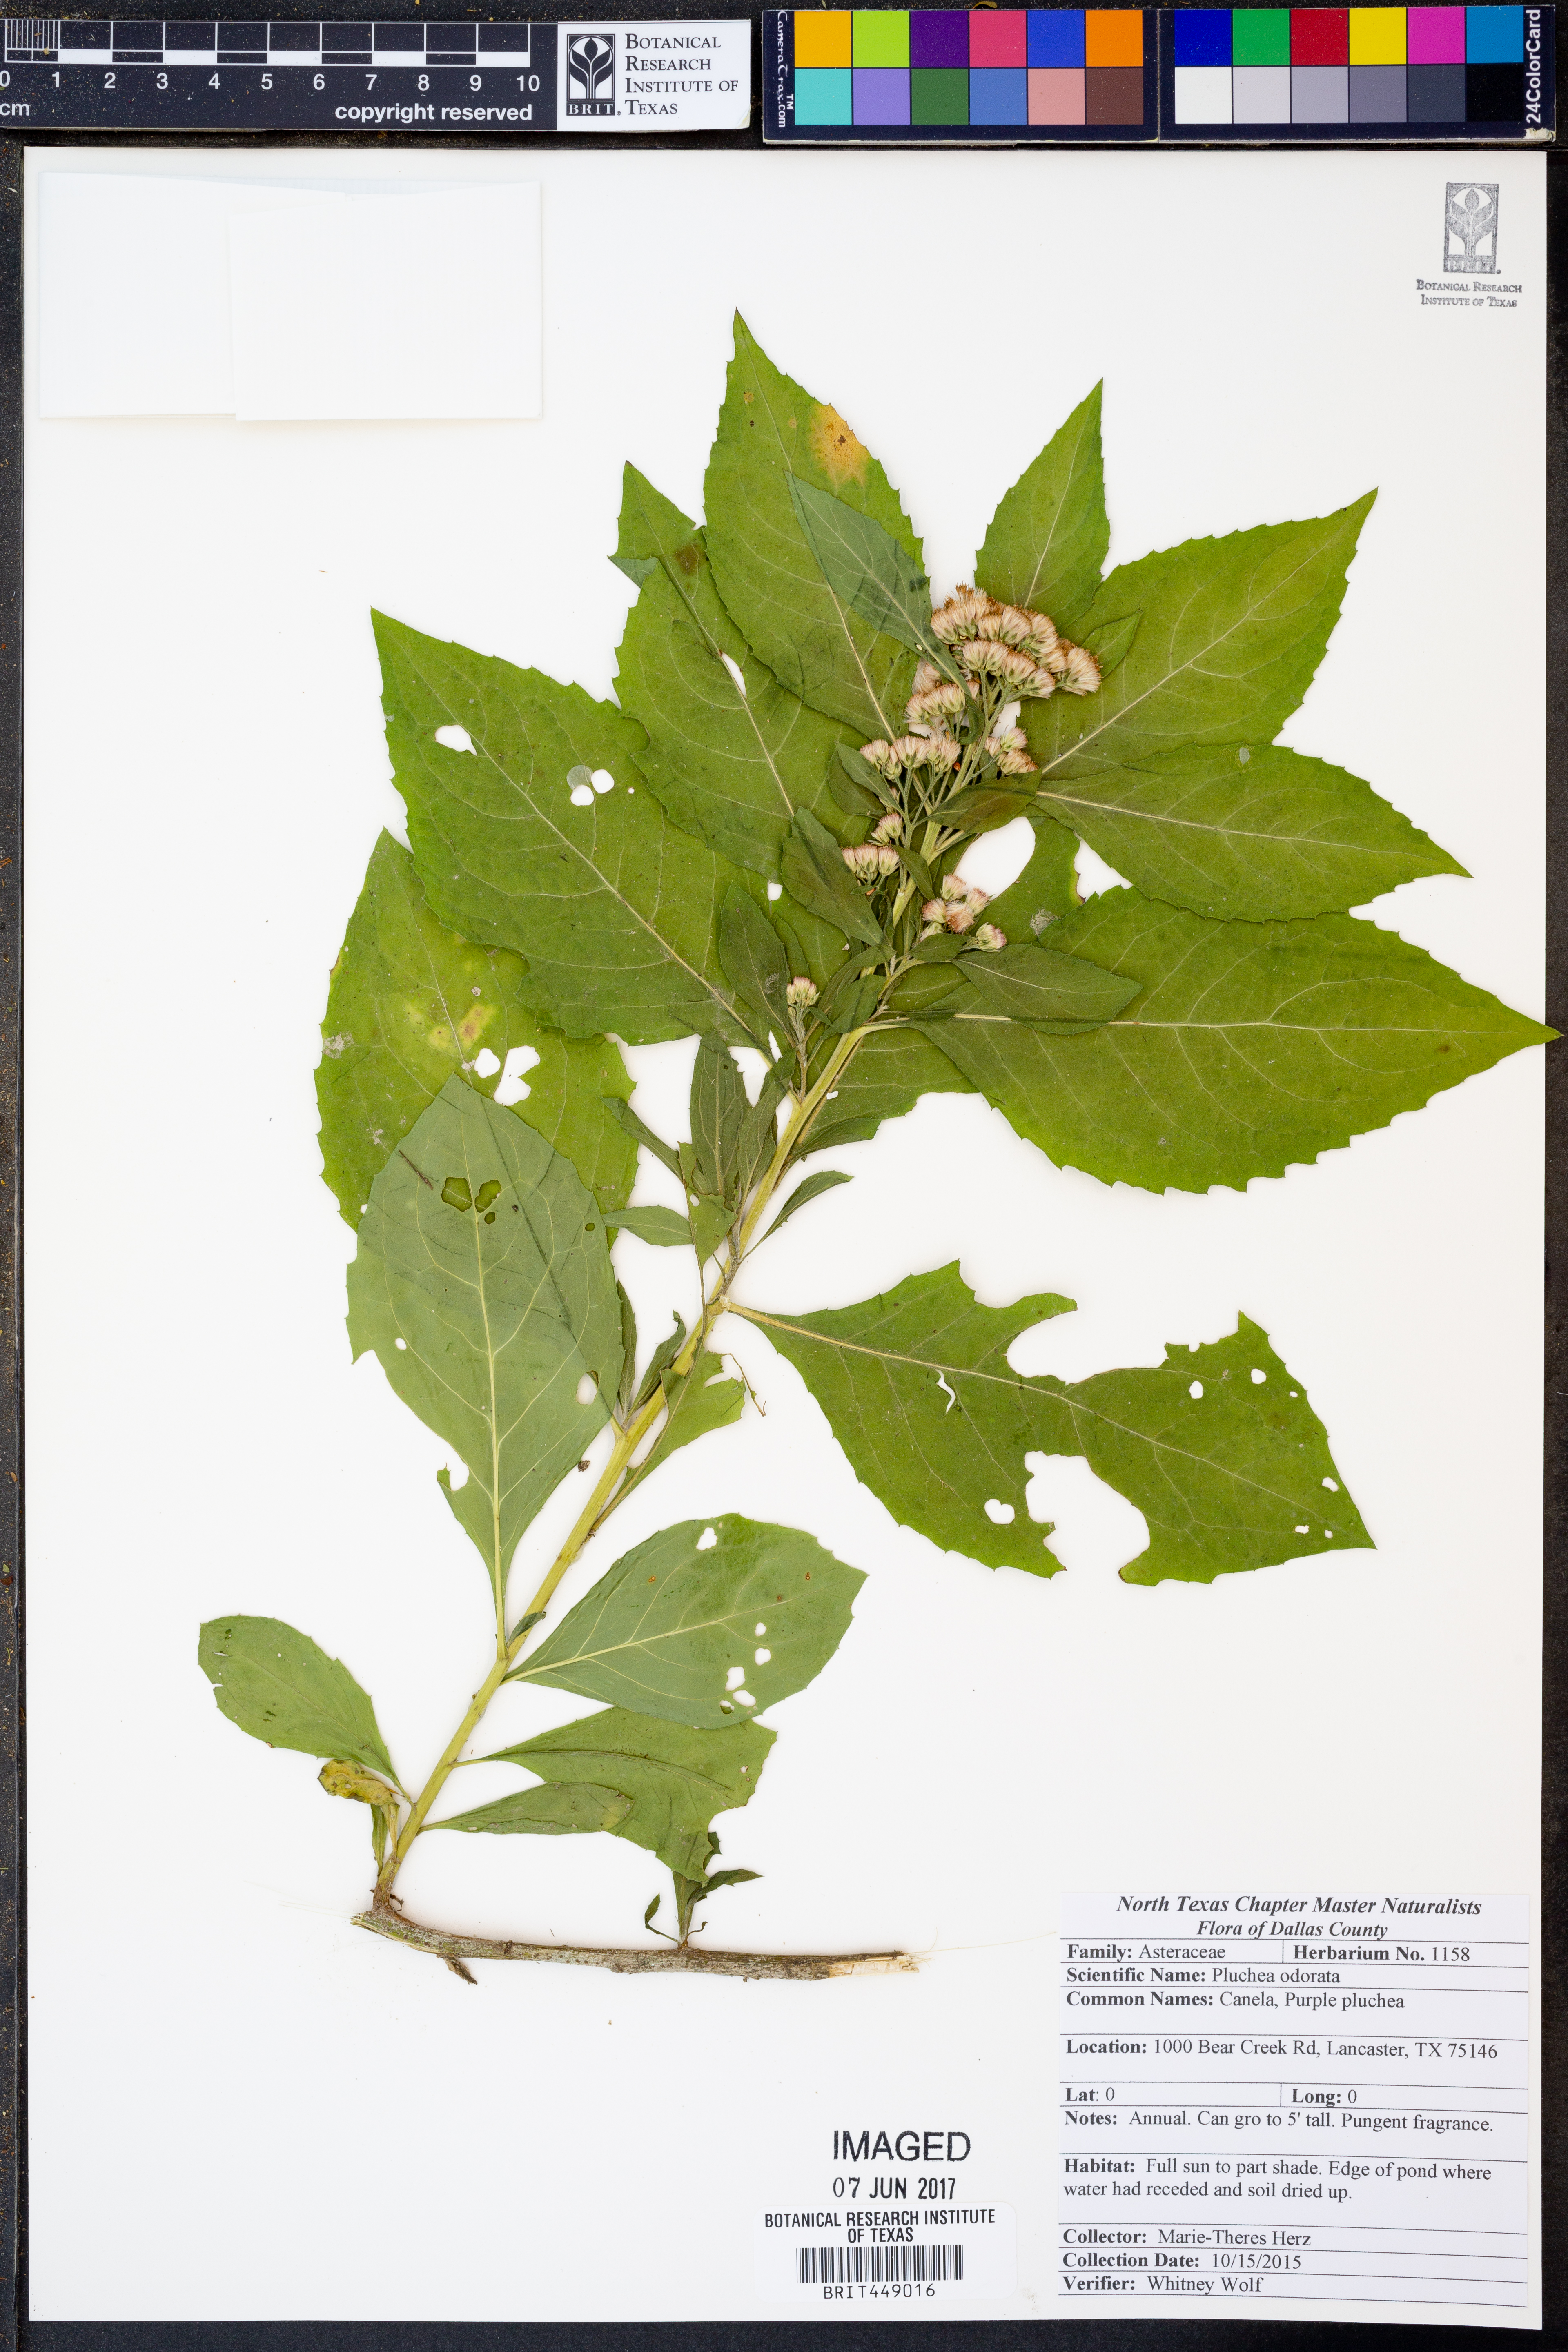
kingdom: Plantae
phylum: Tracheophyta
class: Magnoliopsida
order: Asterales
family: Asteraceae
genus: Pluchea
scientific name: Pluchea odorata
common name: Saltmarsh fleabane
